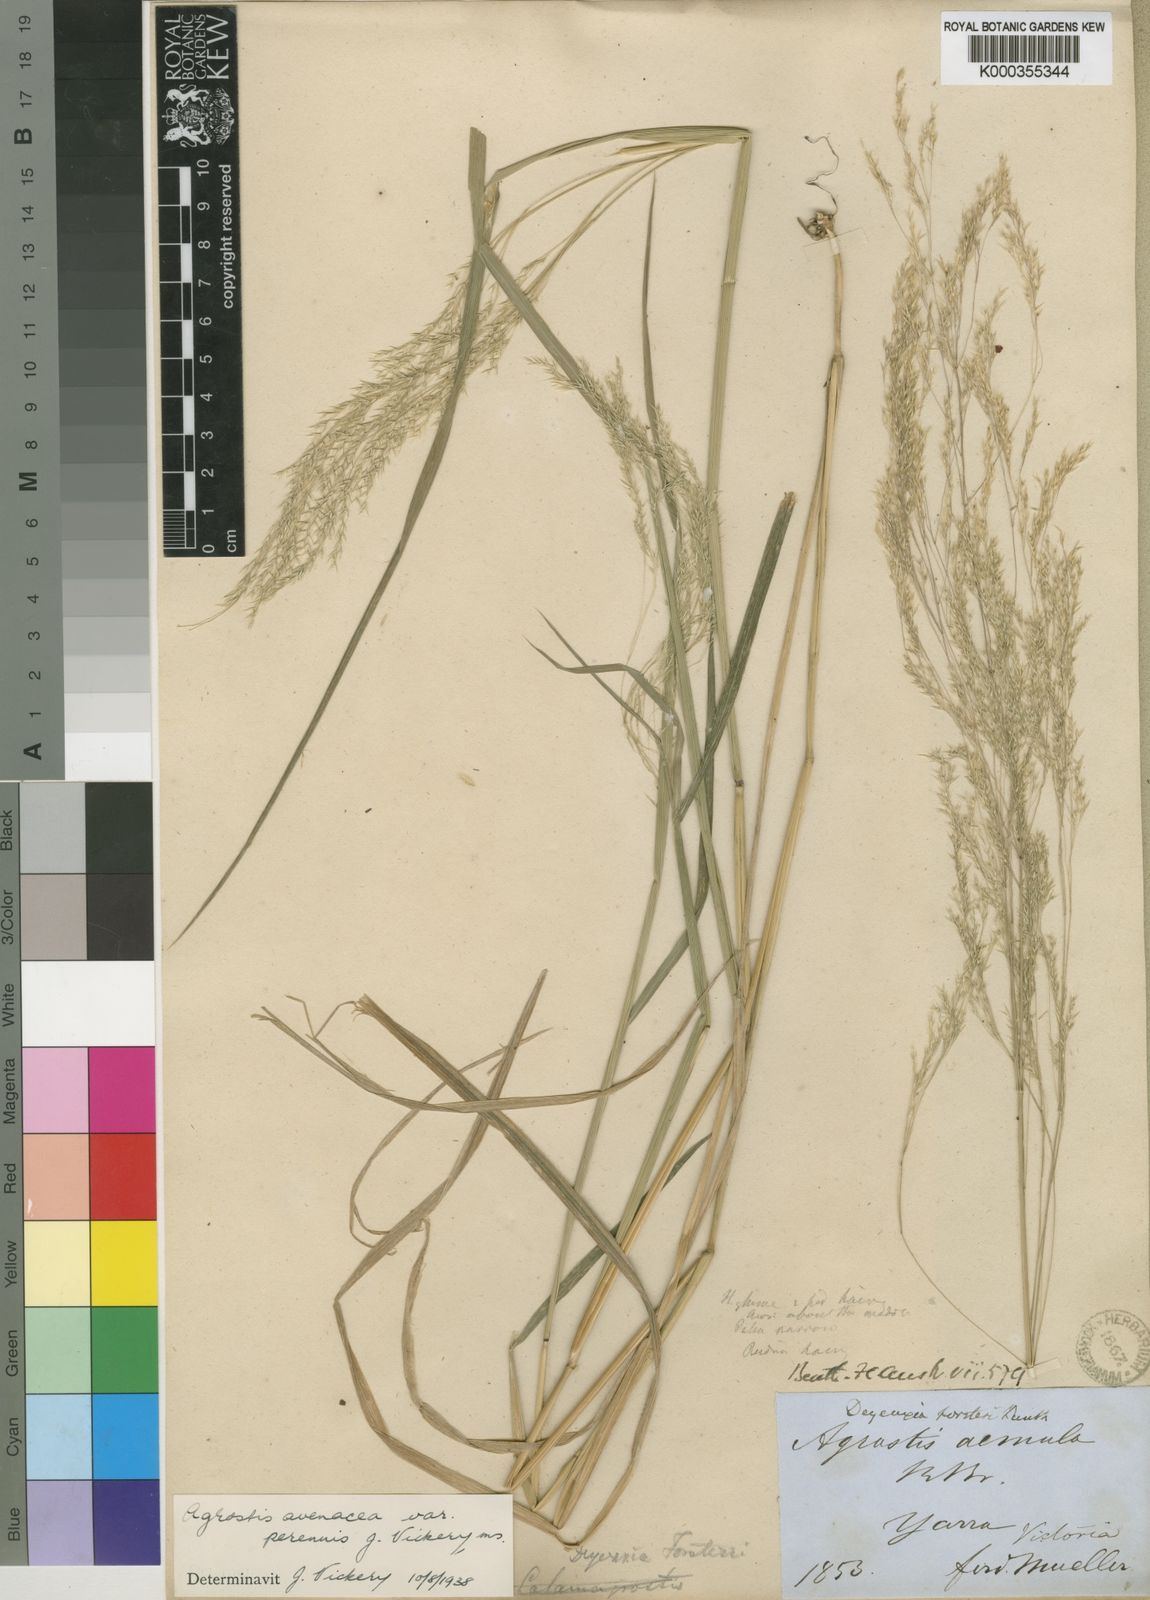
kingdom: Plantae
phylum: Tracheophyta
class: Liliopsida
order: Poales
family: Poaceae
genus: Lachnagrostis
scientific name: Lachnagrostis perennis
